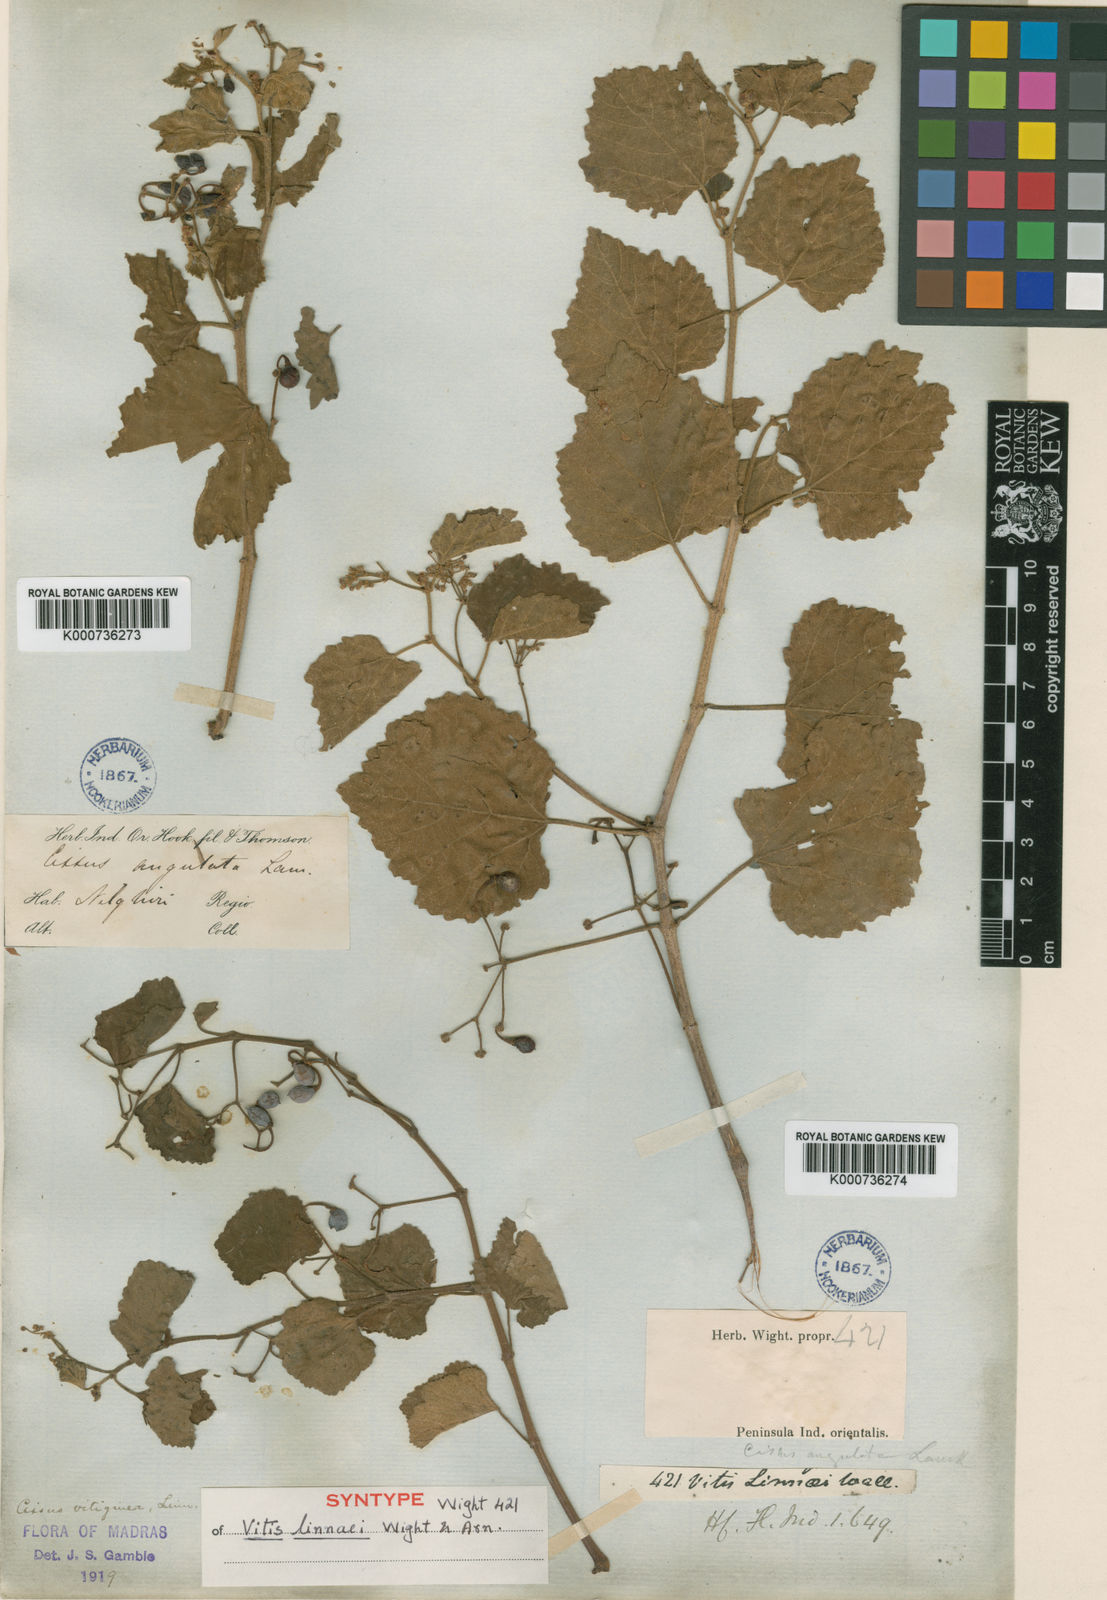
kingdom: Plantae
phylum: Tracheophyta
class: Magnoliopsida
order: Vitales
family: Vitaceae
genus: Cissus
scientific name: Cissus vitiginea
